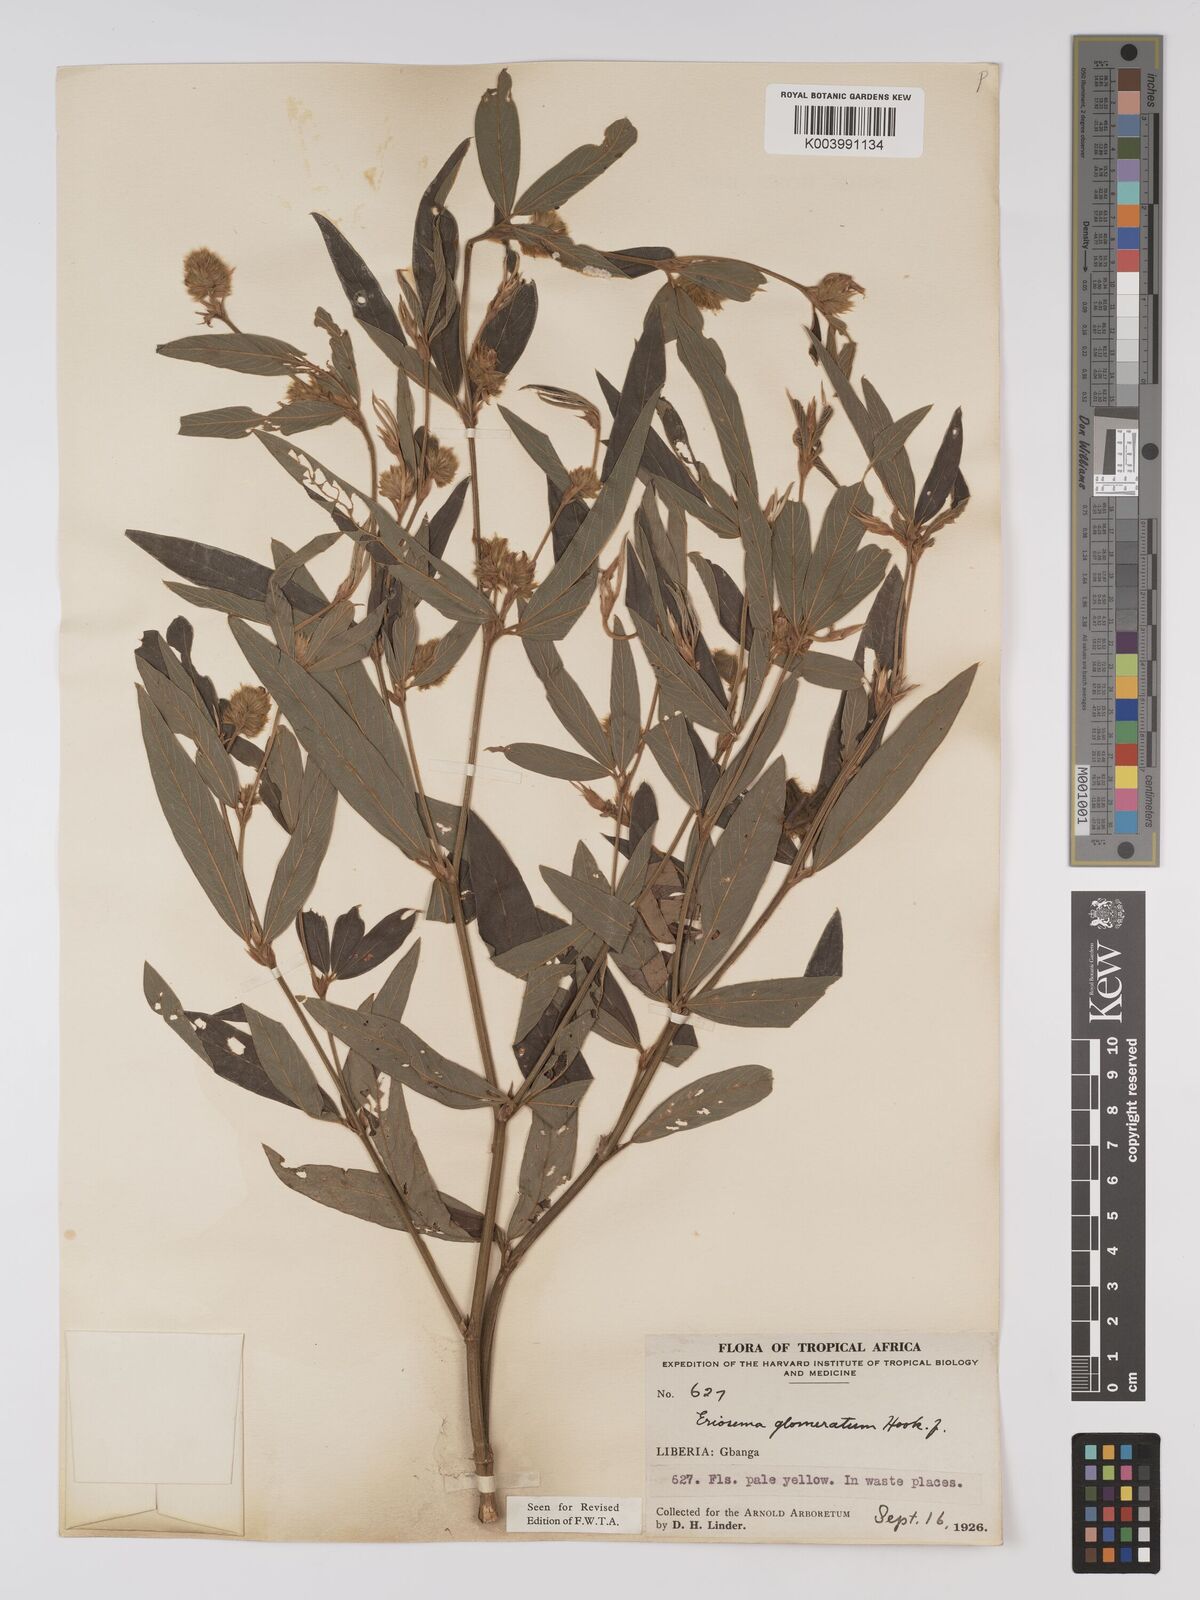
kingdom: Plantae
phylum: Tracheophyta
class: Magnoliopsida
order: Fabales
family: Fabaceae
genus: Eriosema
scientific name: Eriosema glomeratum
